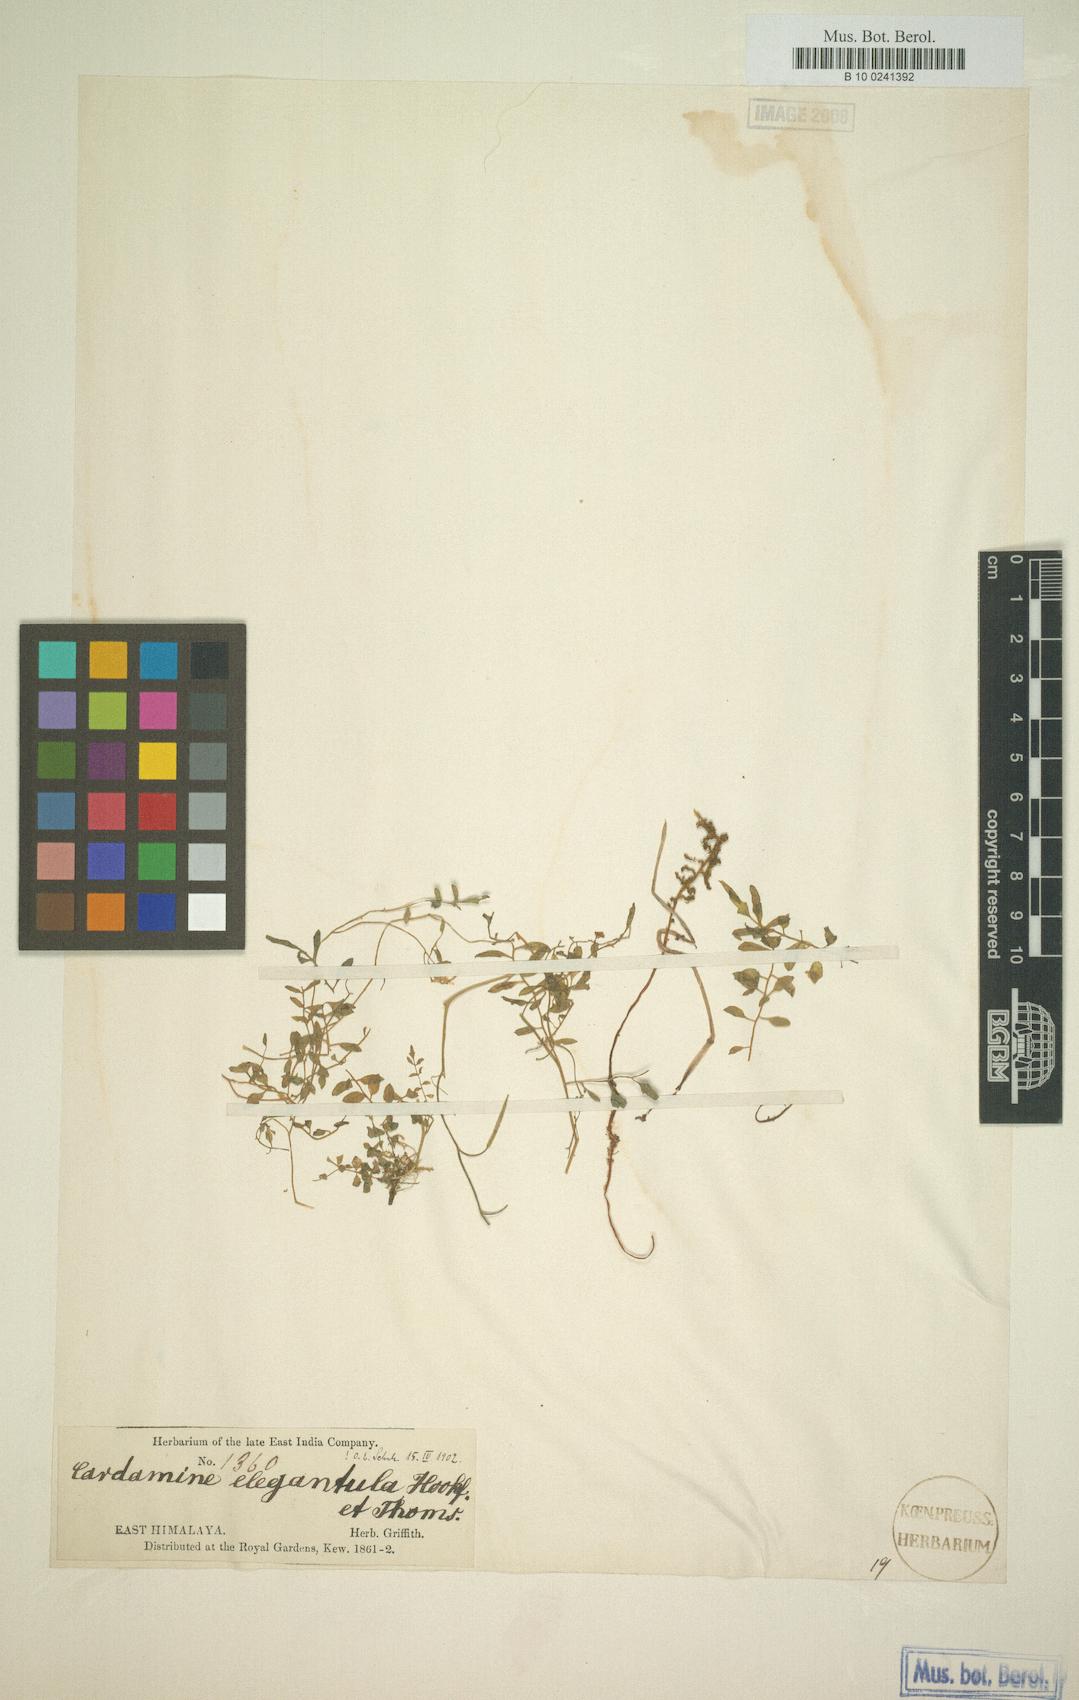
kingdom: Plantae
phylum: Tracheophyta
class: Magnoliopsida
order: Brassicales
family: Brassicaceae
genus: Cardamine
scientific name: Cardamine elegantula
